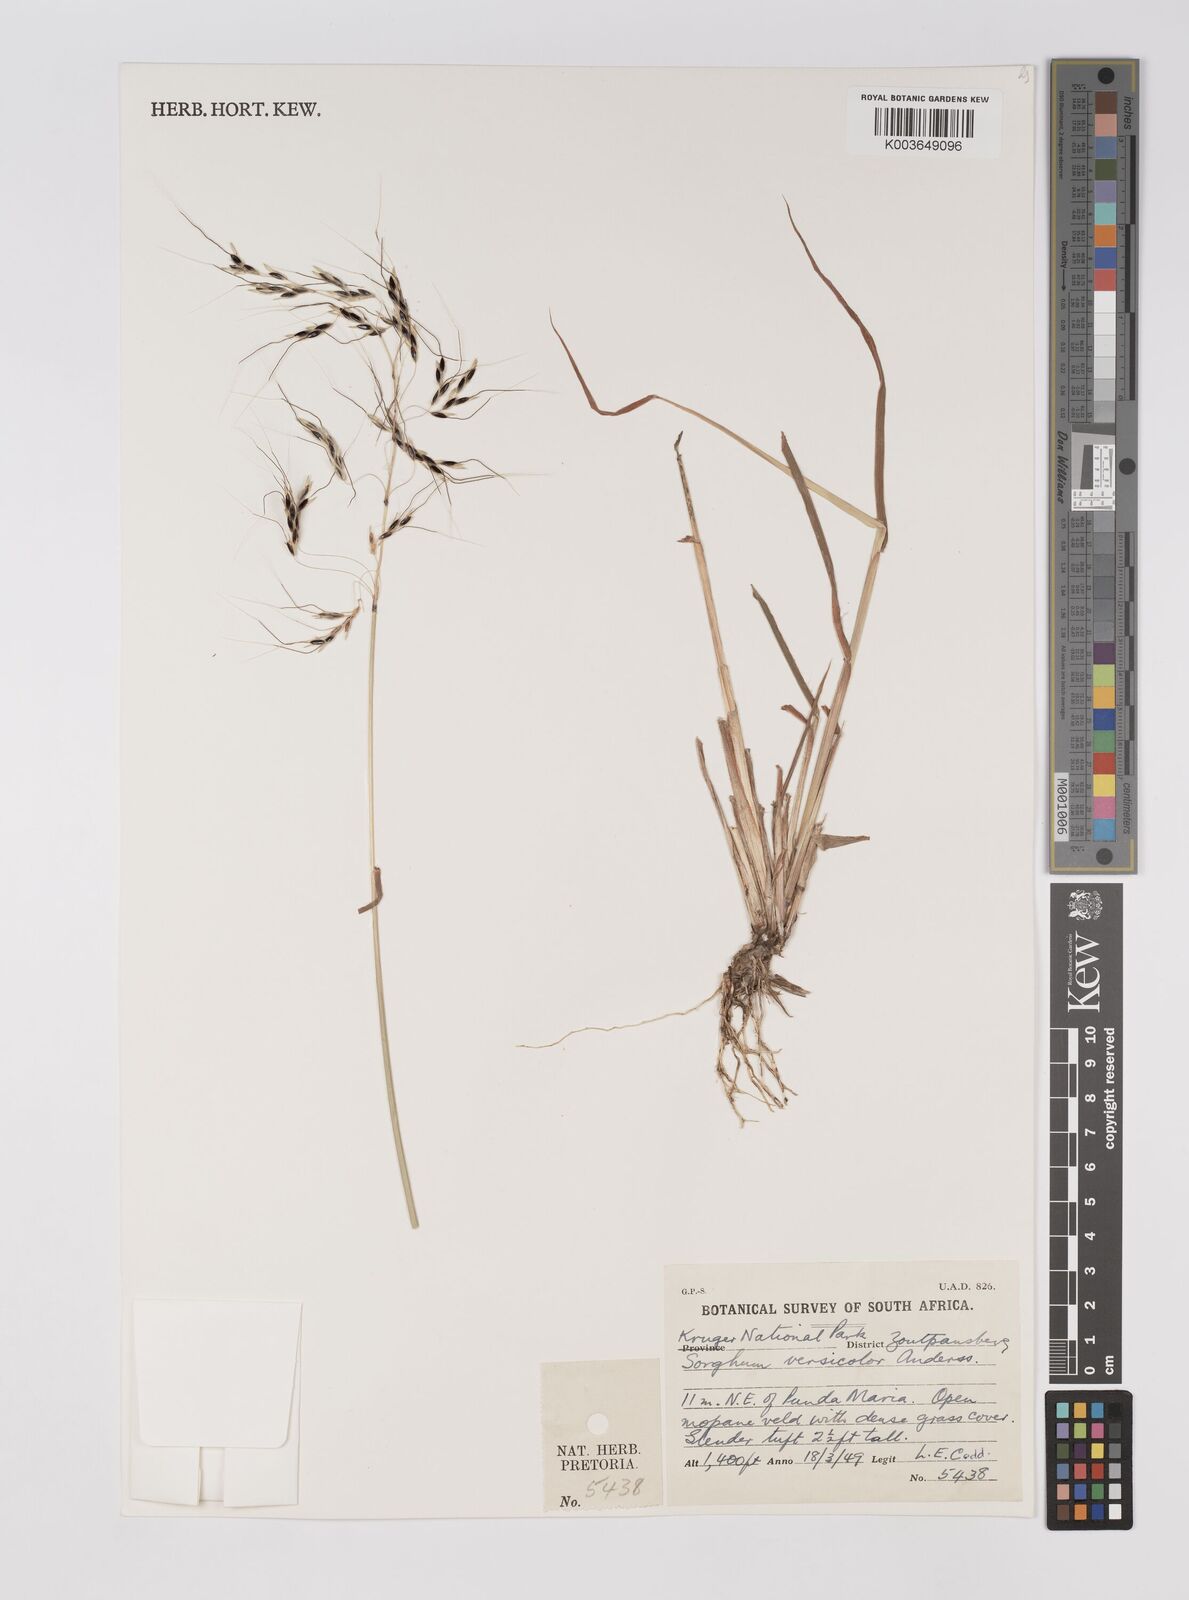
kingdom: Plantae
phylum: Tracheophyta
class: Liliopsida
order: Poales
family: Poaceae
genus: Sarga
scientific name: Sarga versicolor
